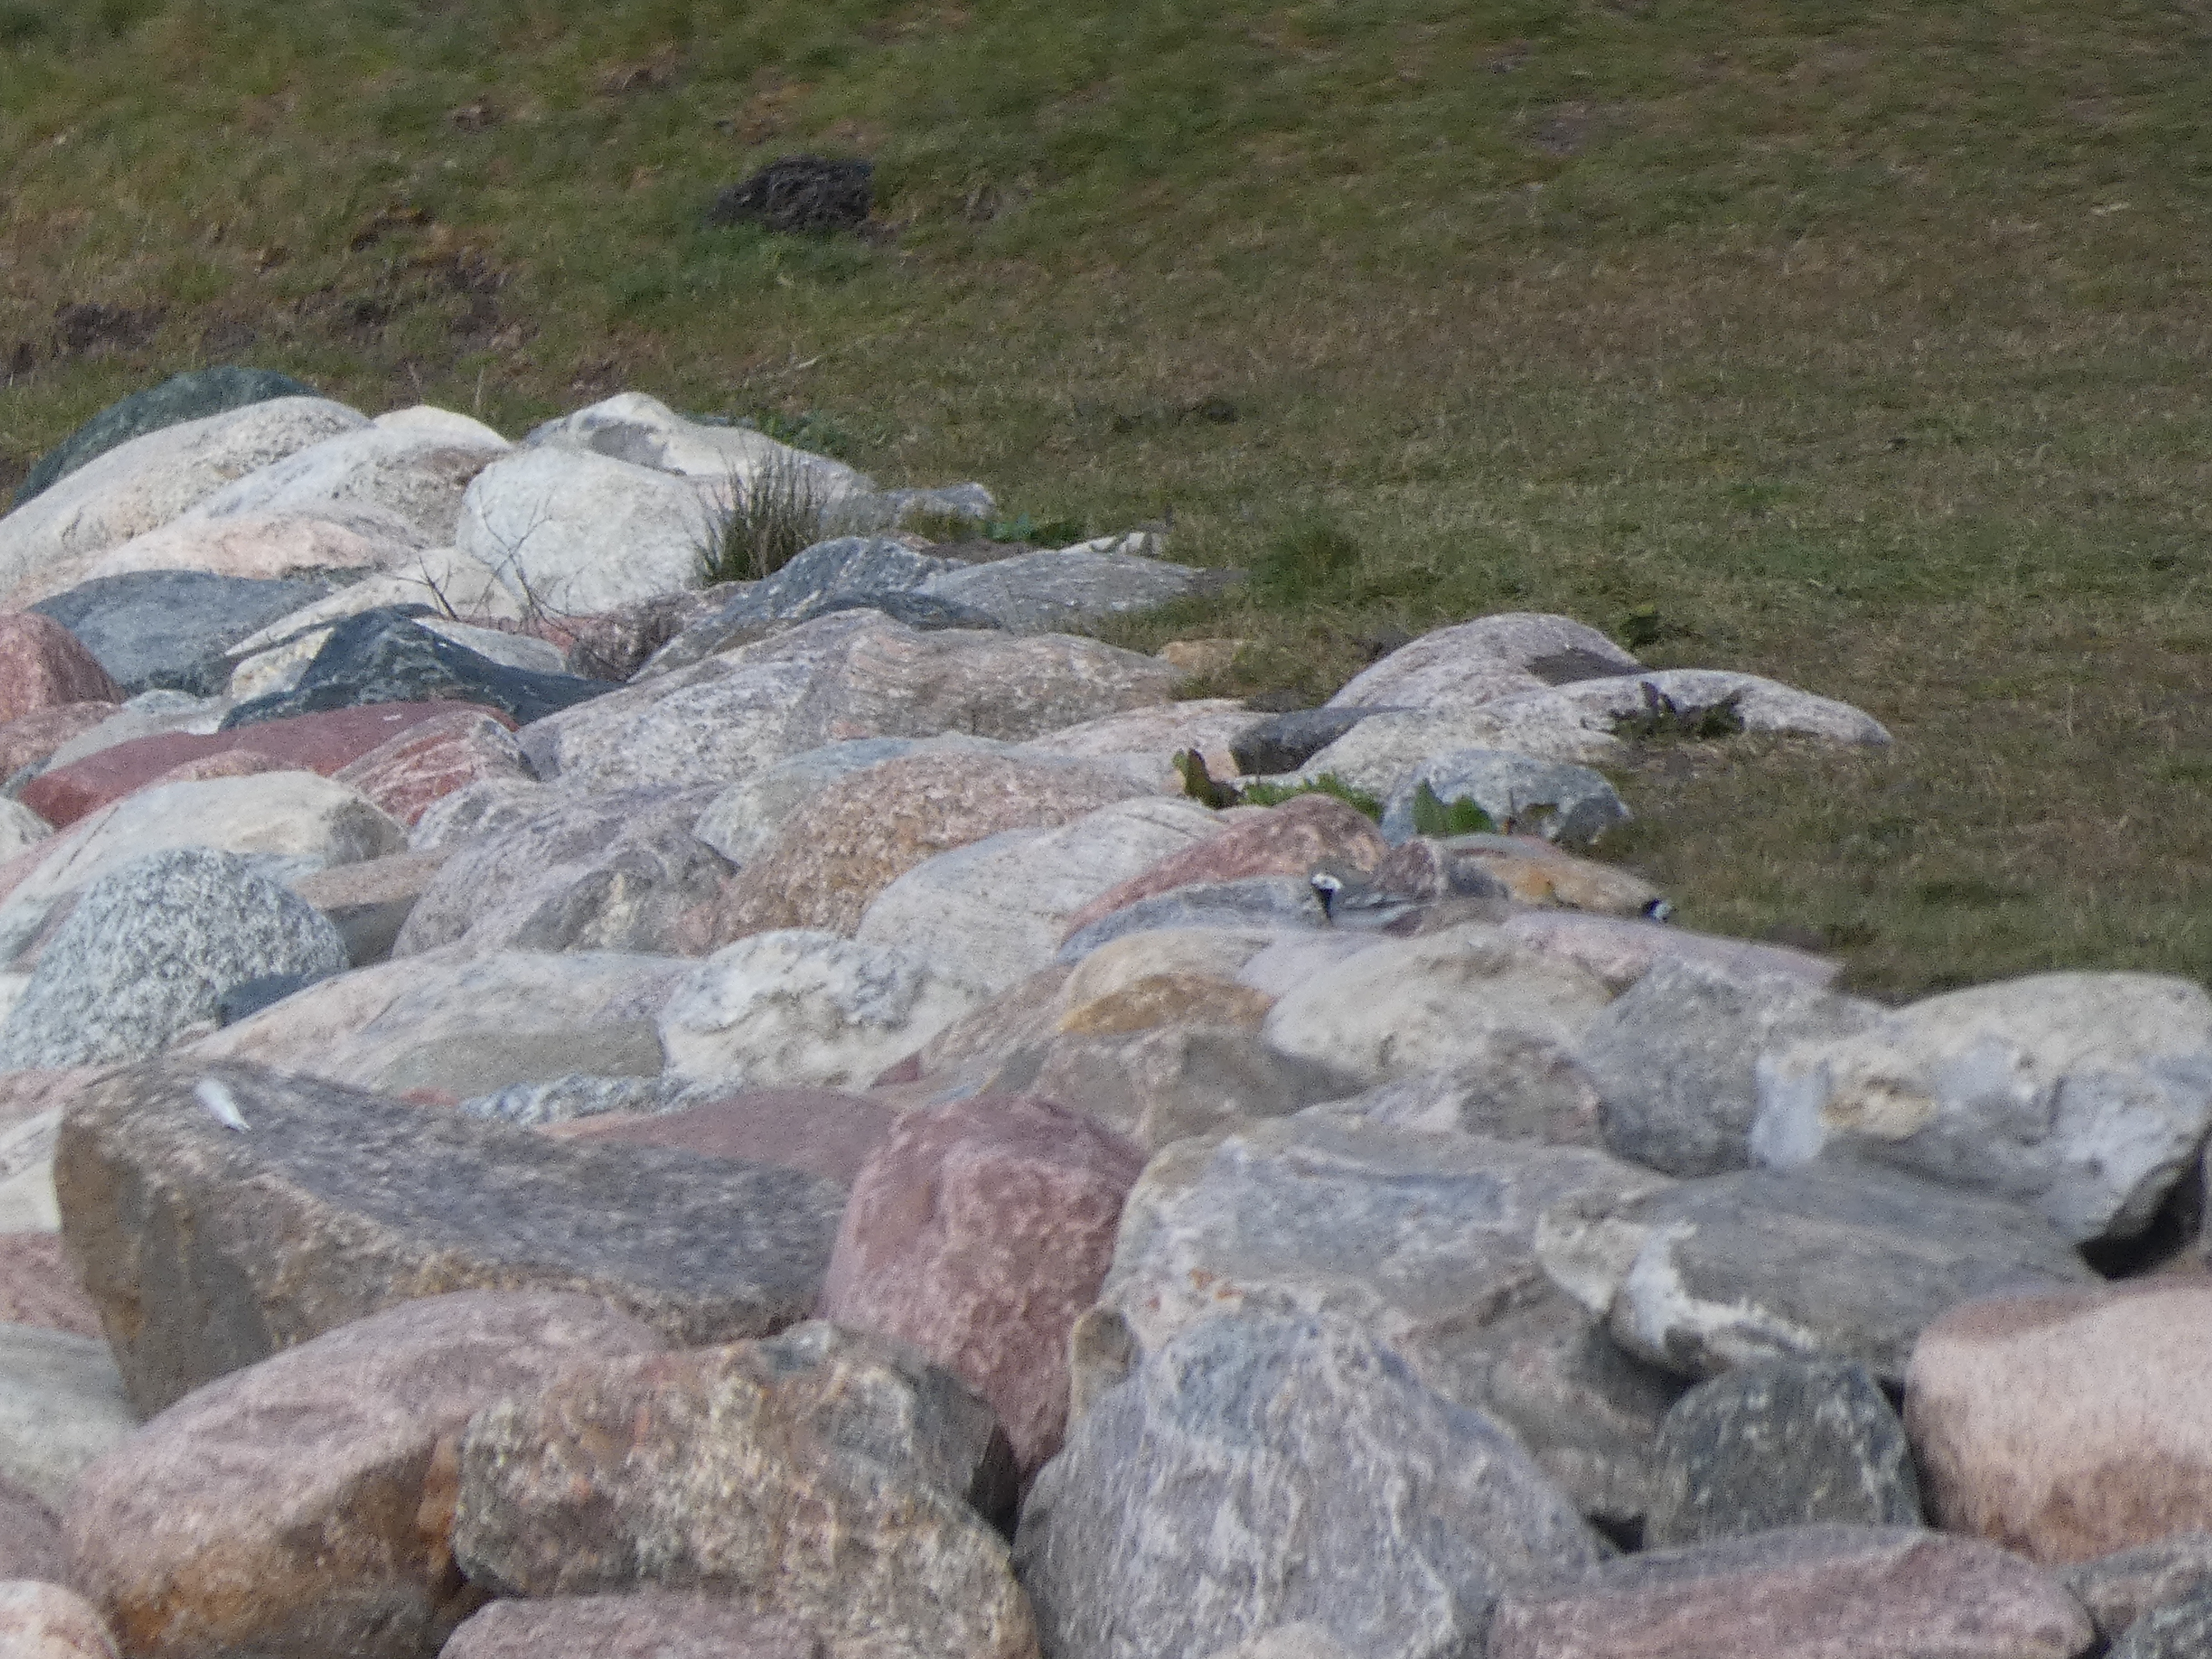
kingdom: Animalia
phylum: Chordata
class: Aves
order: Passeriformes
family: Motacillidae
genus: Motacilla
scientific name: Motacilla alba
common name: Hvid vipstjert
